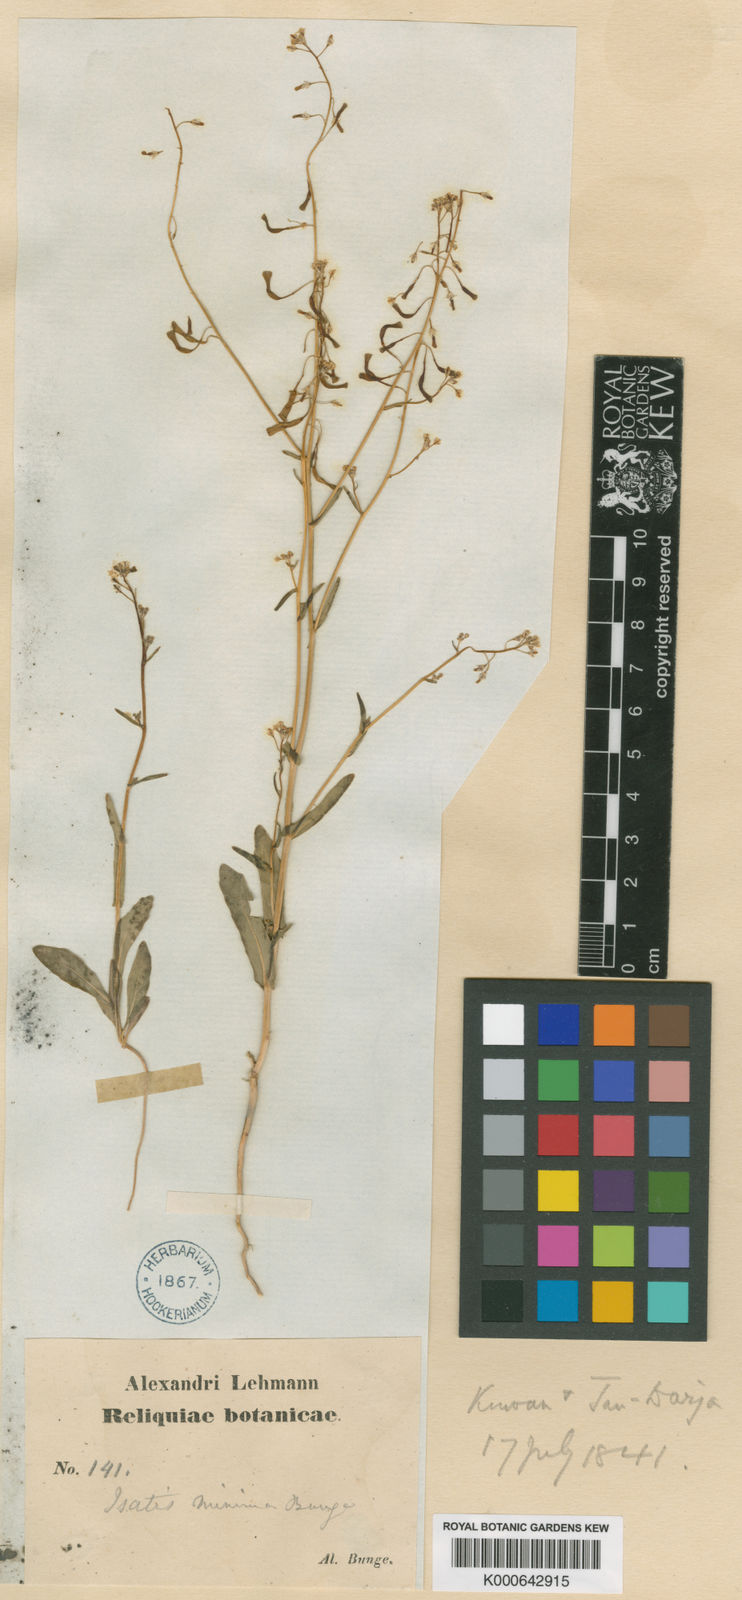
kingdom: Plantae
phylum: Tracheophyta
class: Magnoliopsida
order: Brassicales
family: Brassicaceae
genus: Isatis
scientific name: Isatis minima
